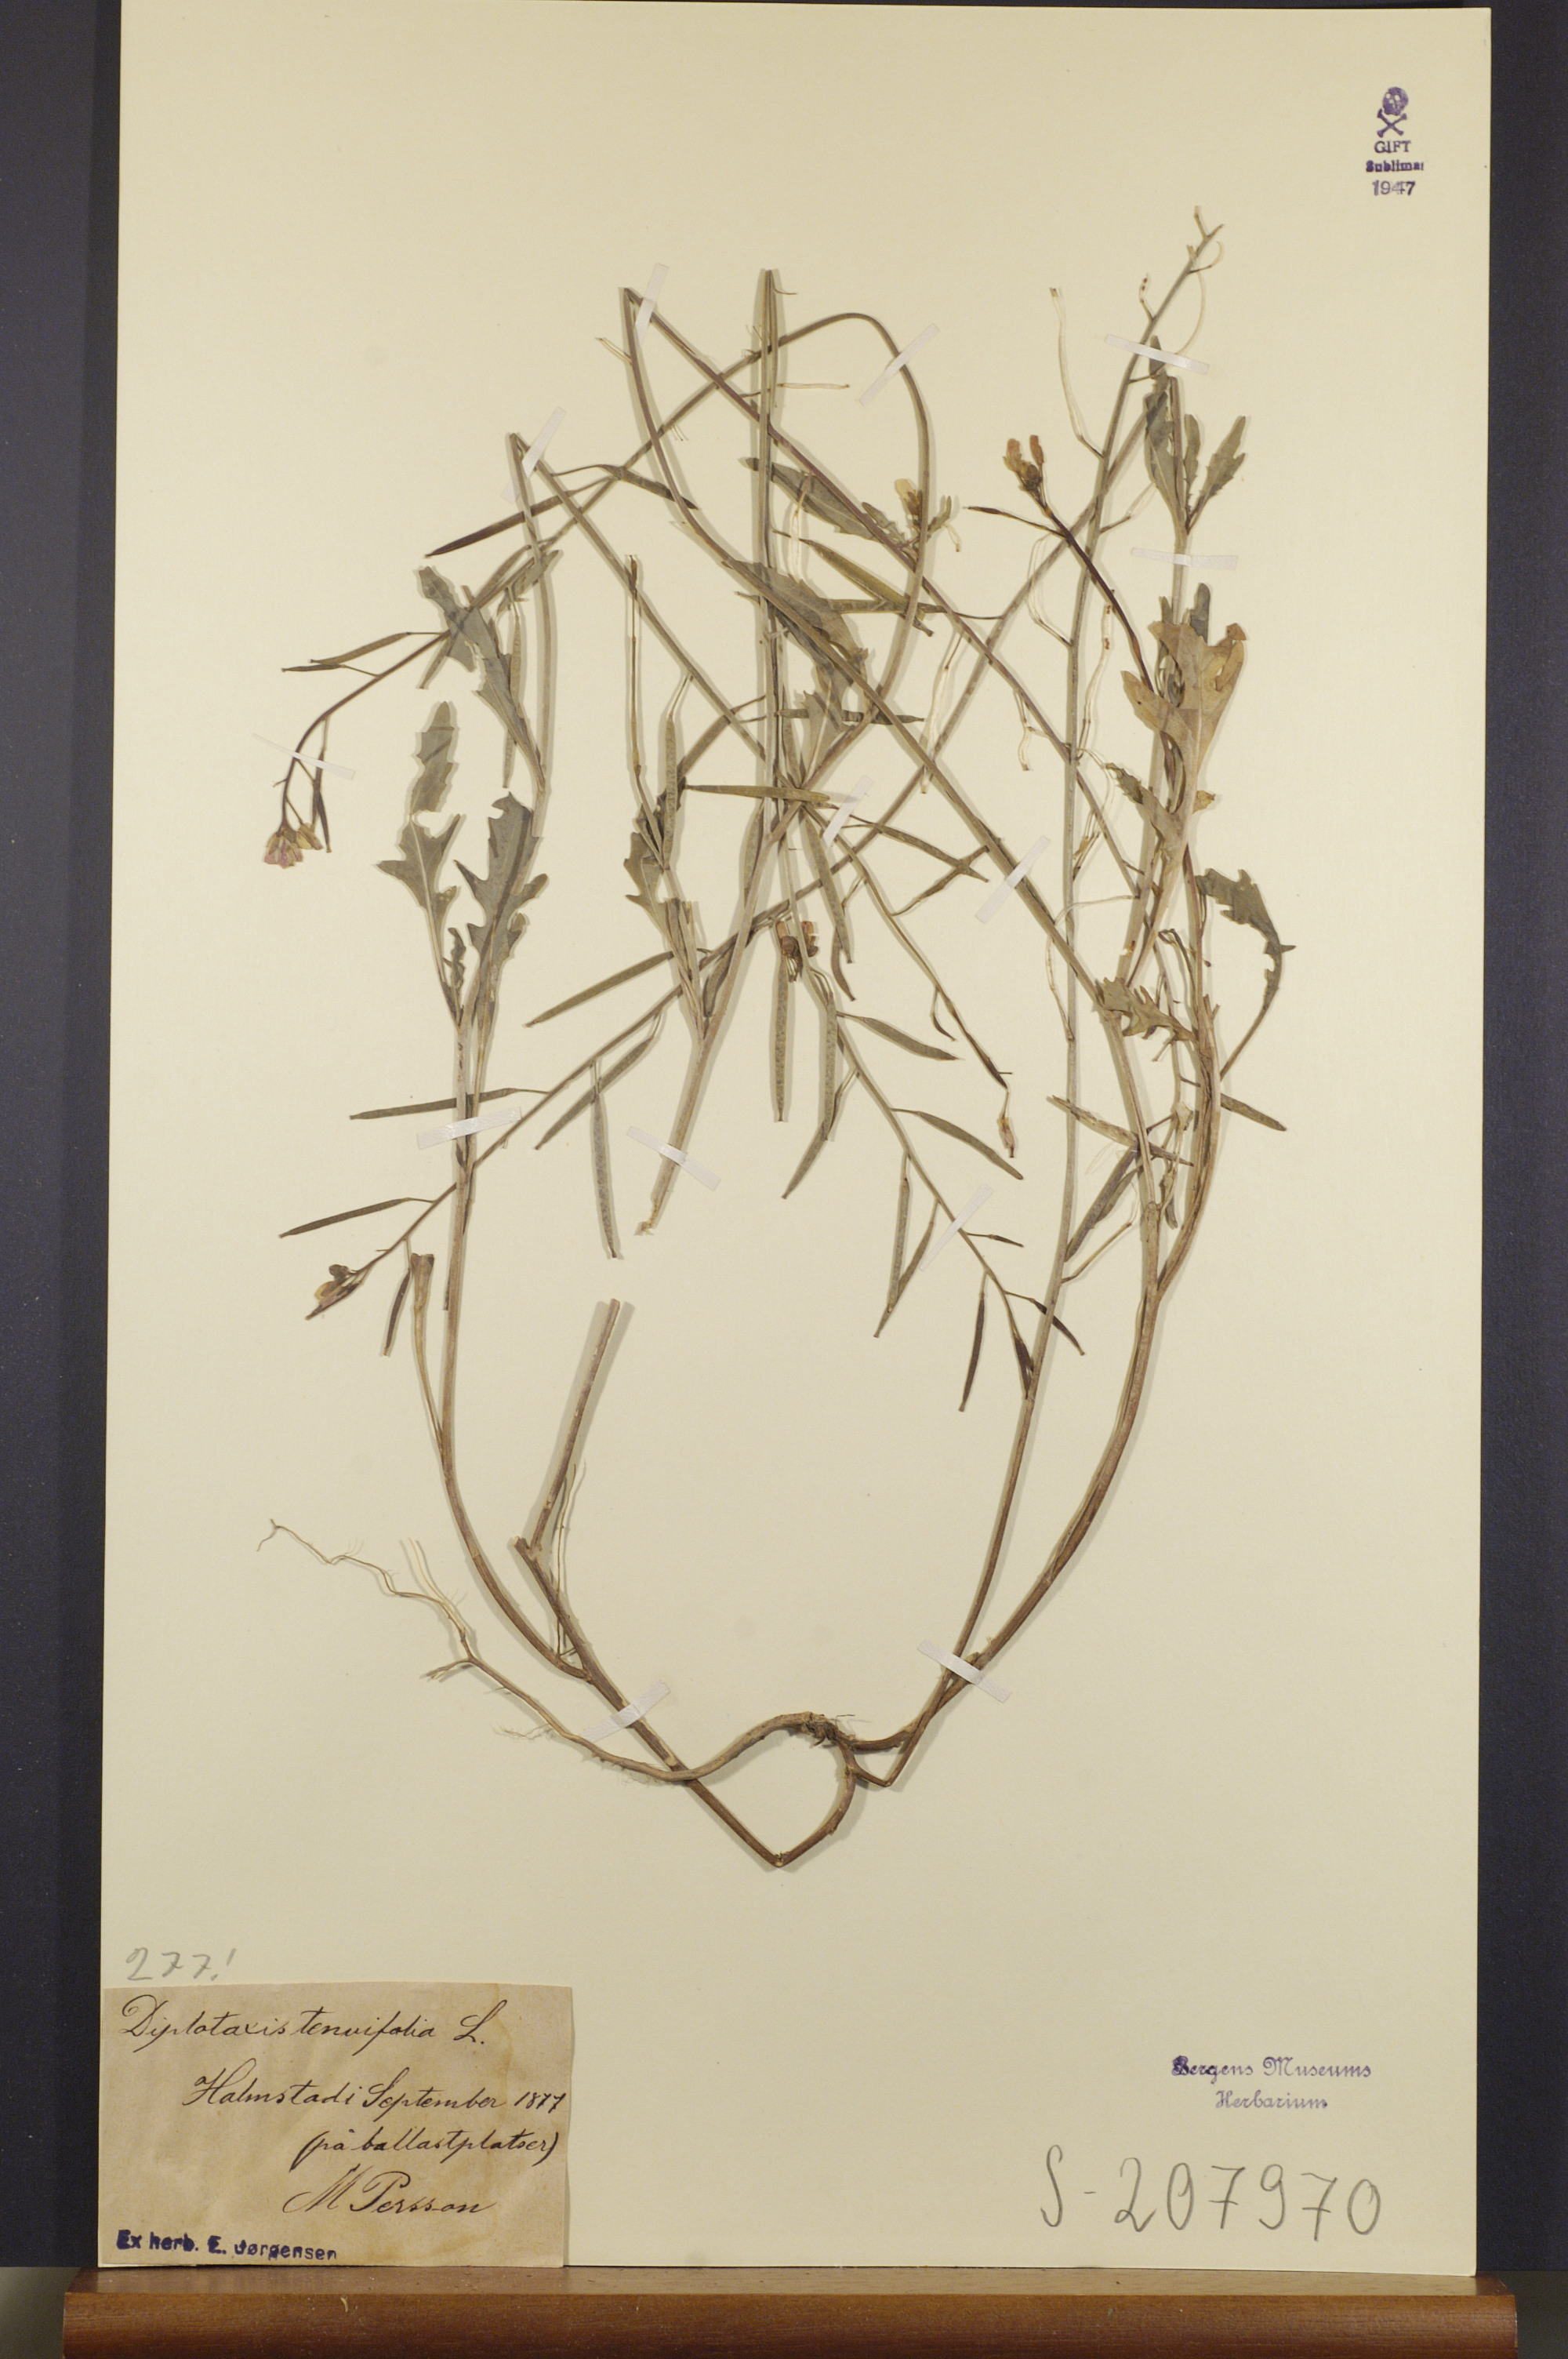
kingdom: Plantae
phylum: Tracheophyta
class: Magnoliopsida
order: Brassicales
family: Brassicaceae
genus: Diplotaxis
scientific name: Diplotaxis tenuifolia
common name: Perennial wall-rocket
